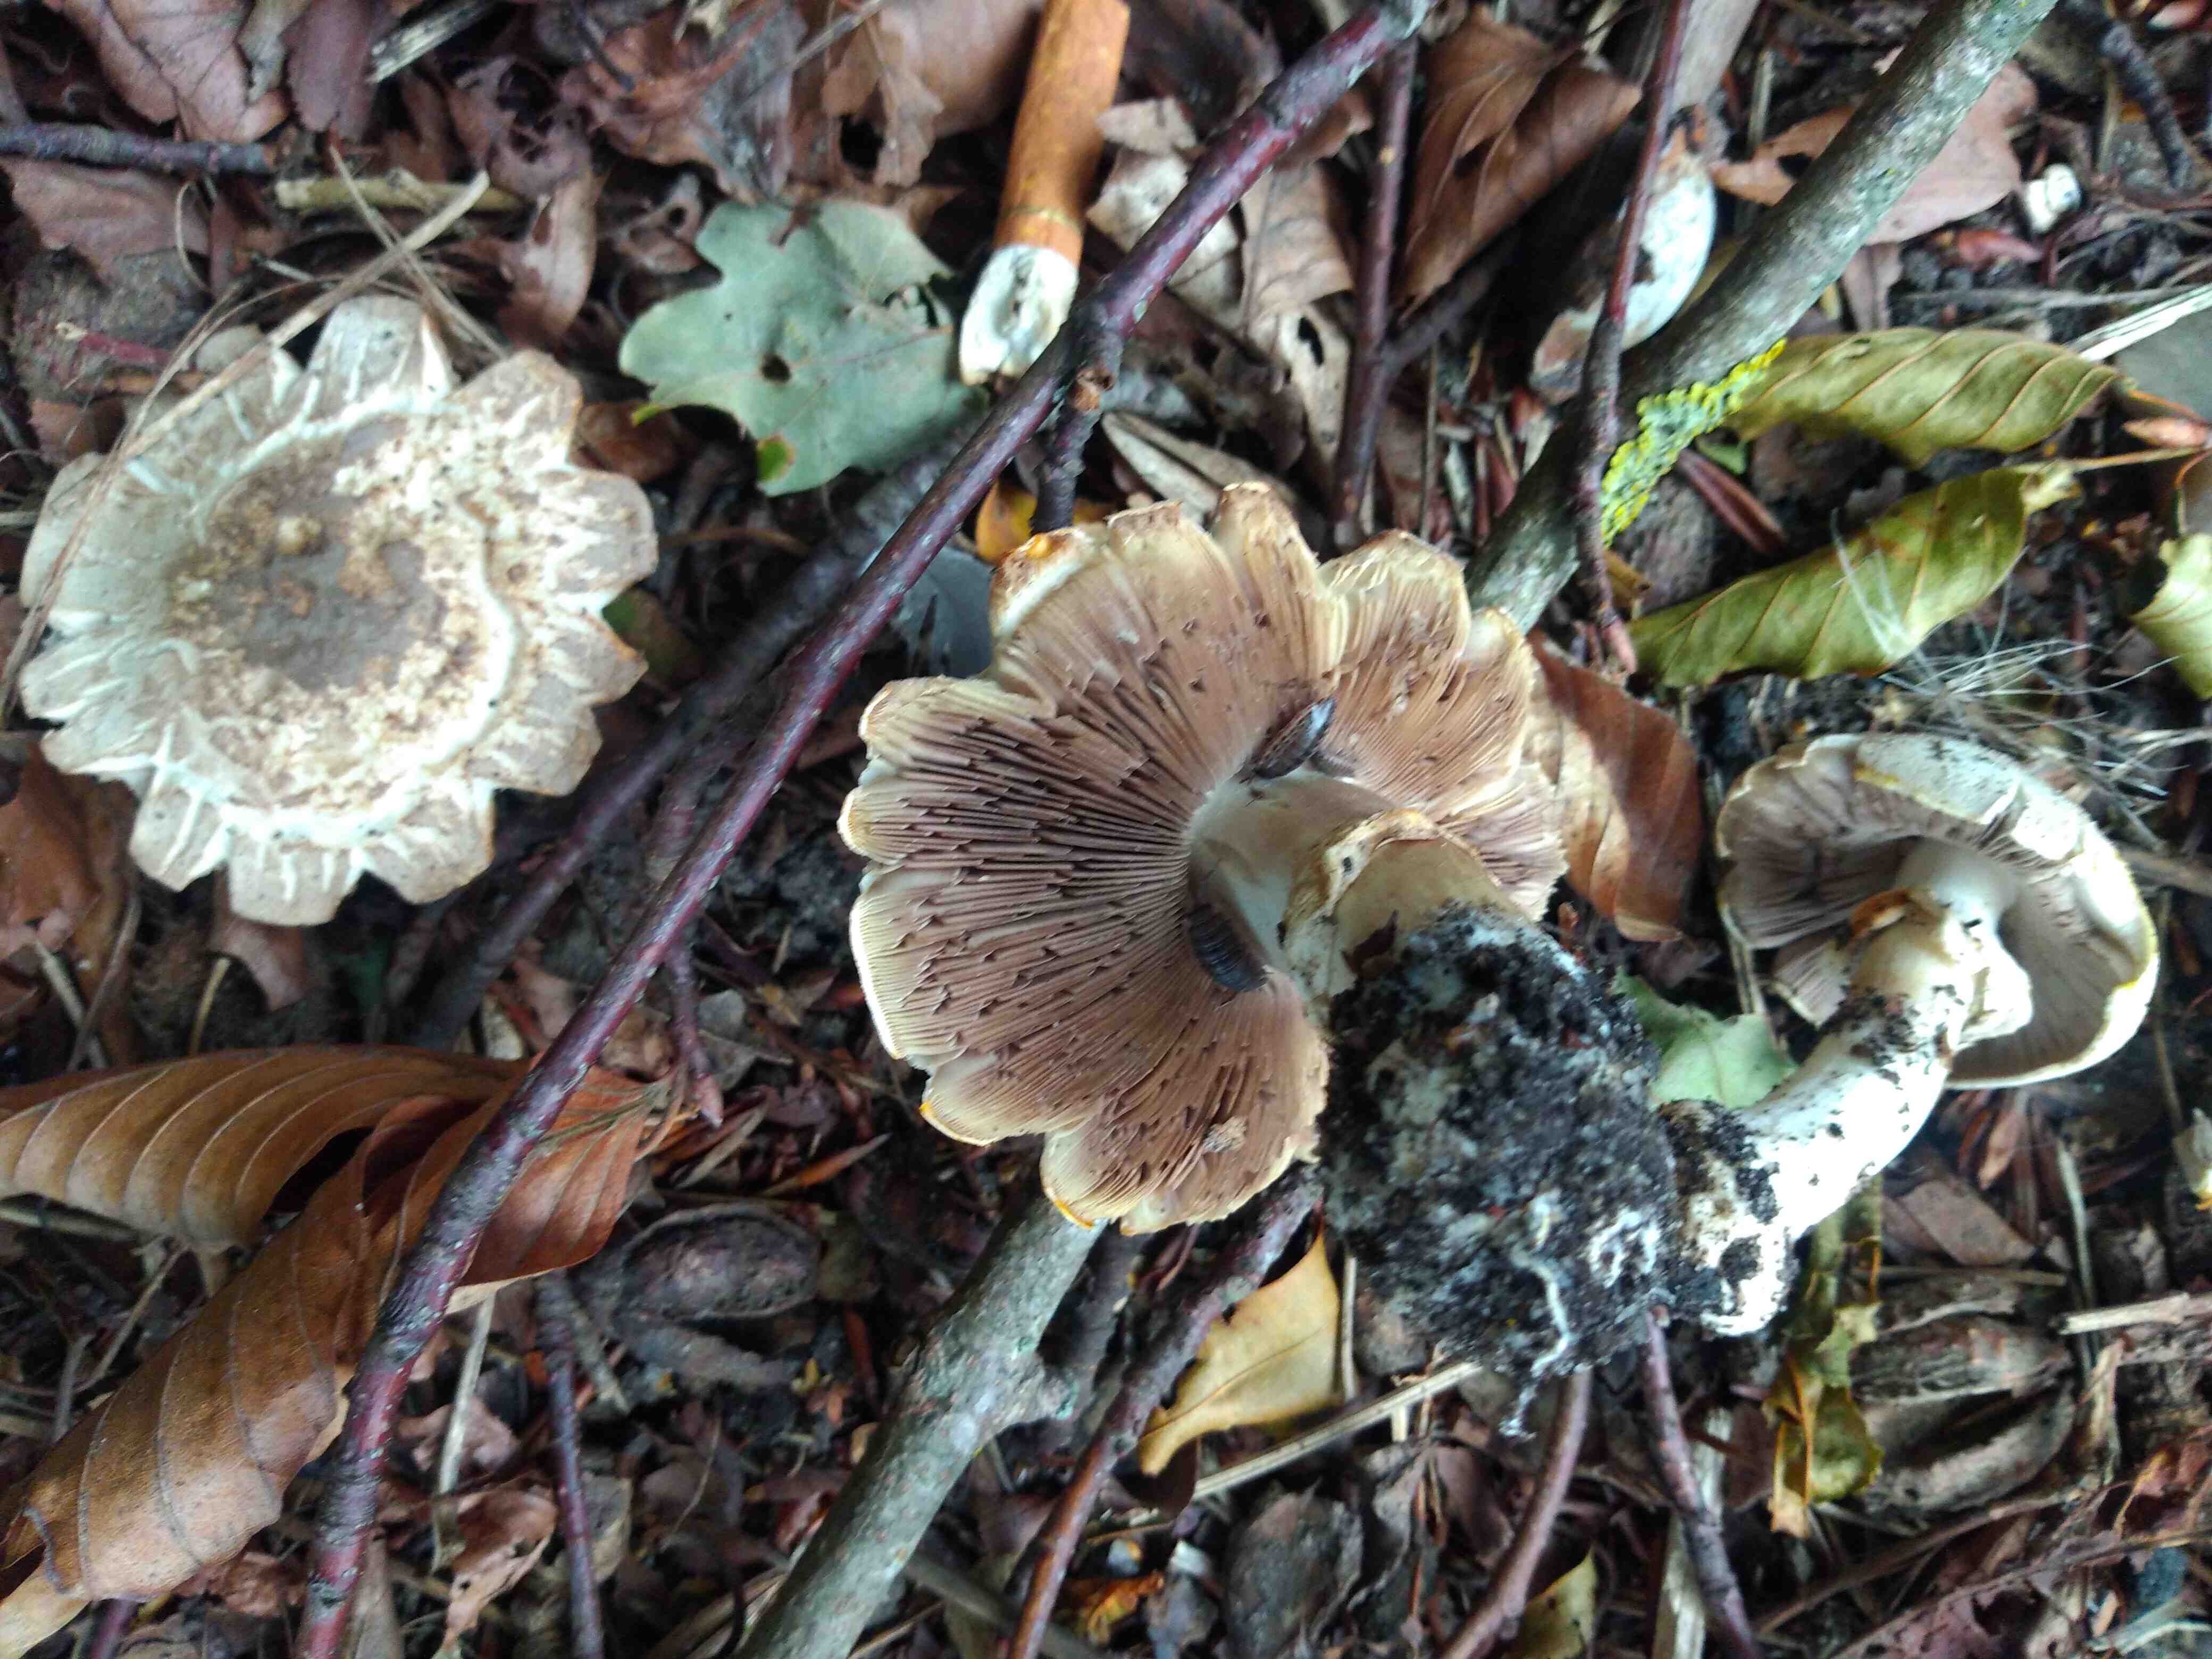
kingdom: Fungi
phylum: Basidiomycota
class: Agaricomycetes
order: Agaricales
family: Agaricaceae
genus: Agaricus
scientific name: Agaricus
